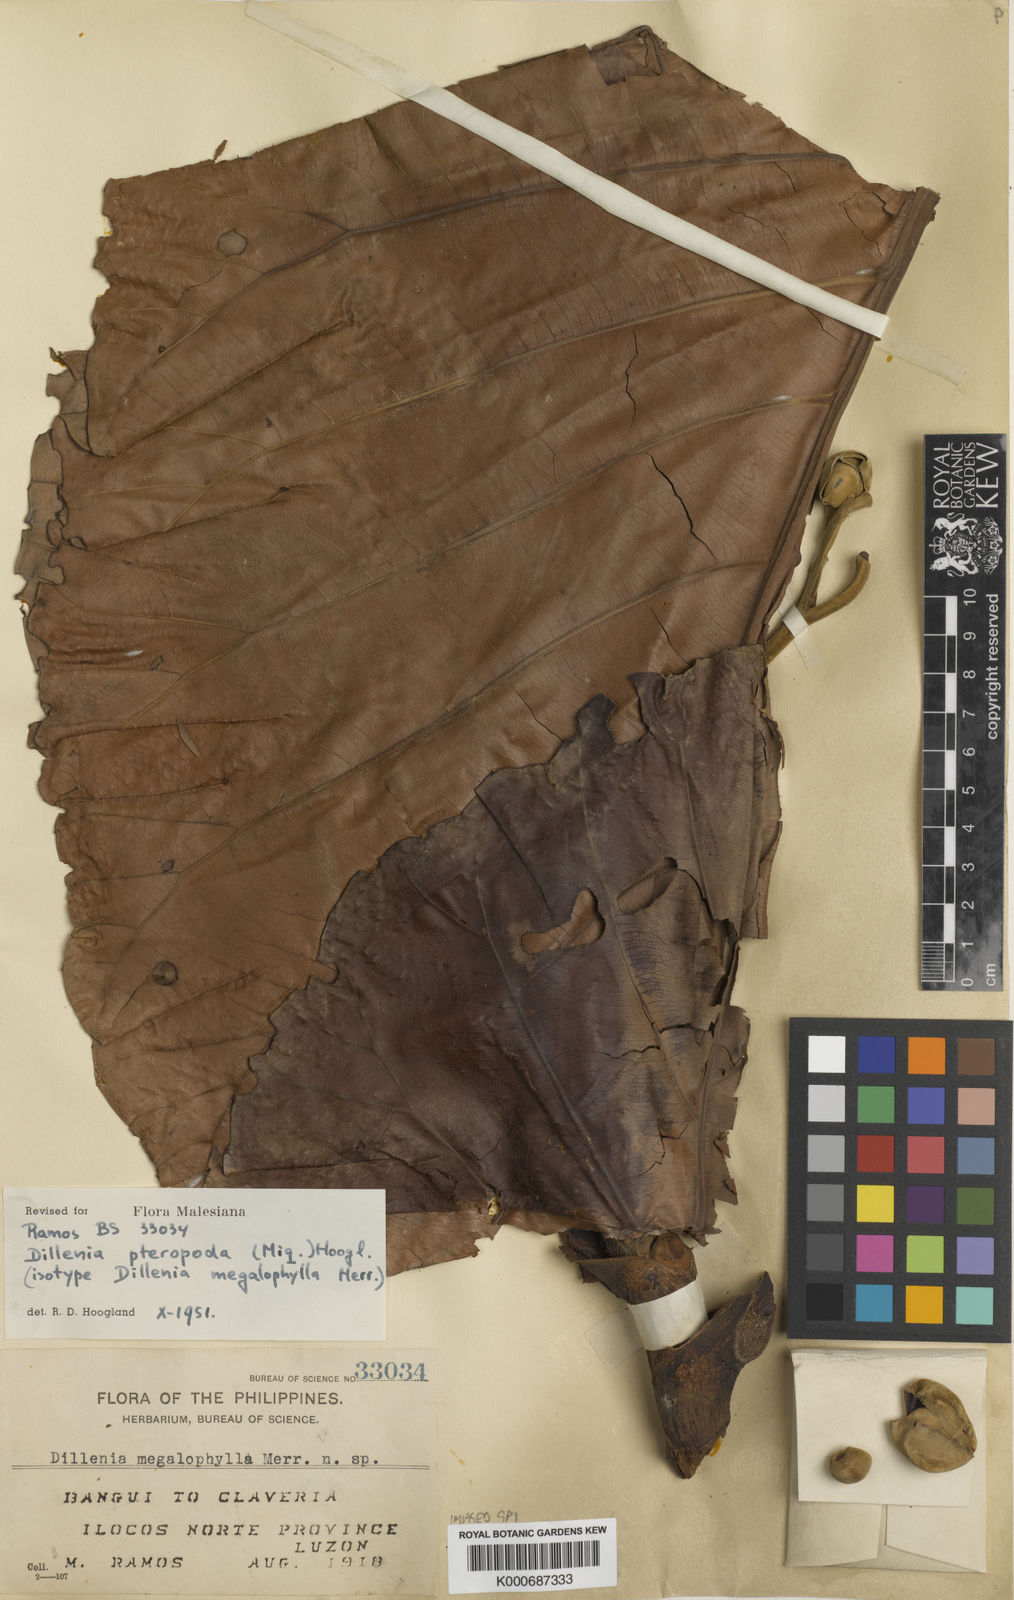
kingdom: Plantae
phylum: Tracheophyta
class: Magnoliopsida
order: Dilleniales
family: Dilleniaceae
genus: Dillenia
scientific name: Dillenia pteropoda
